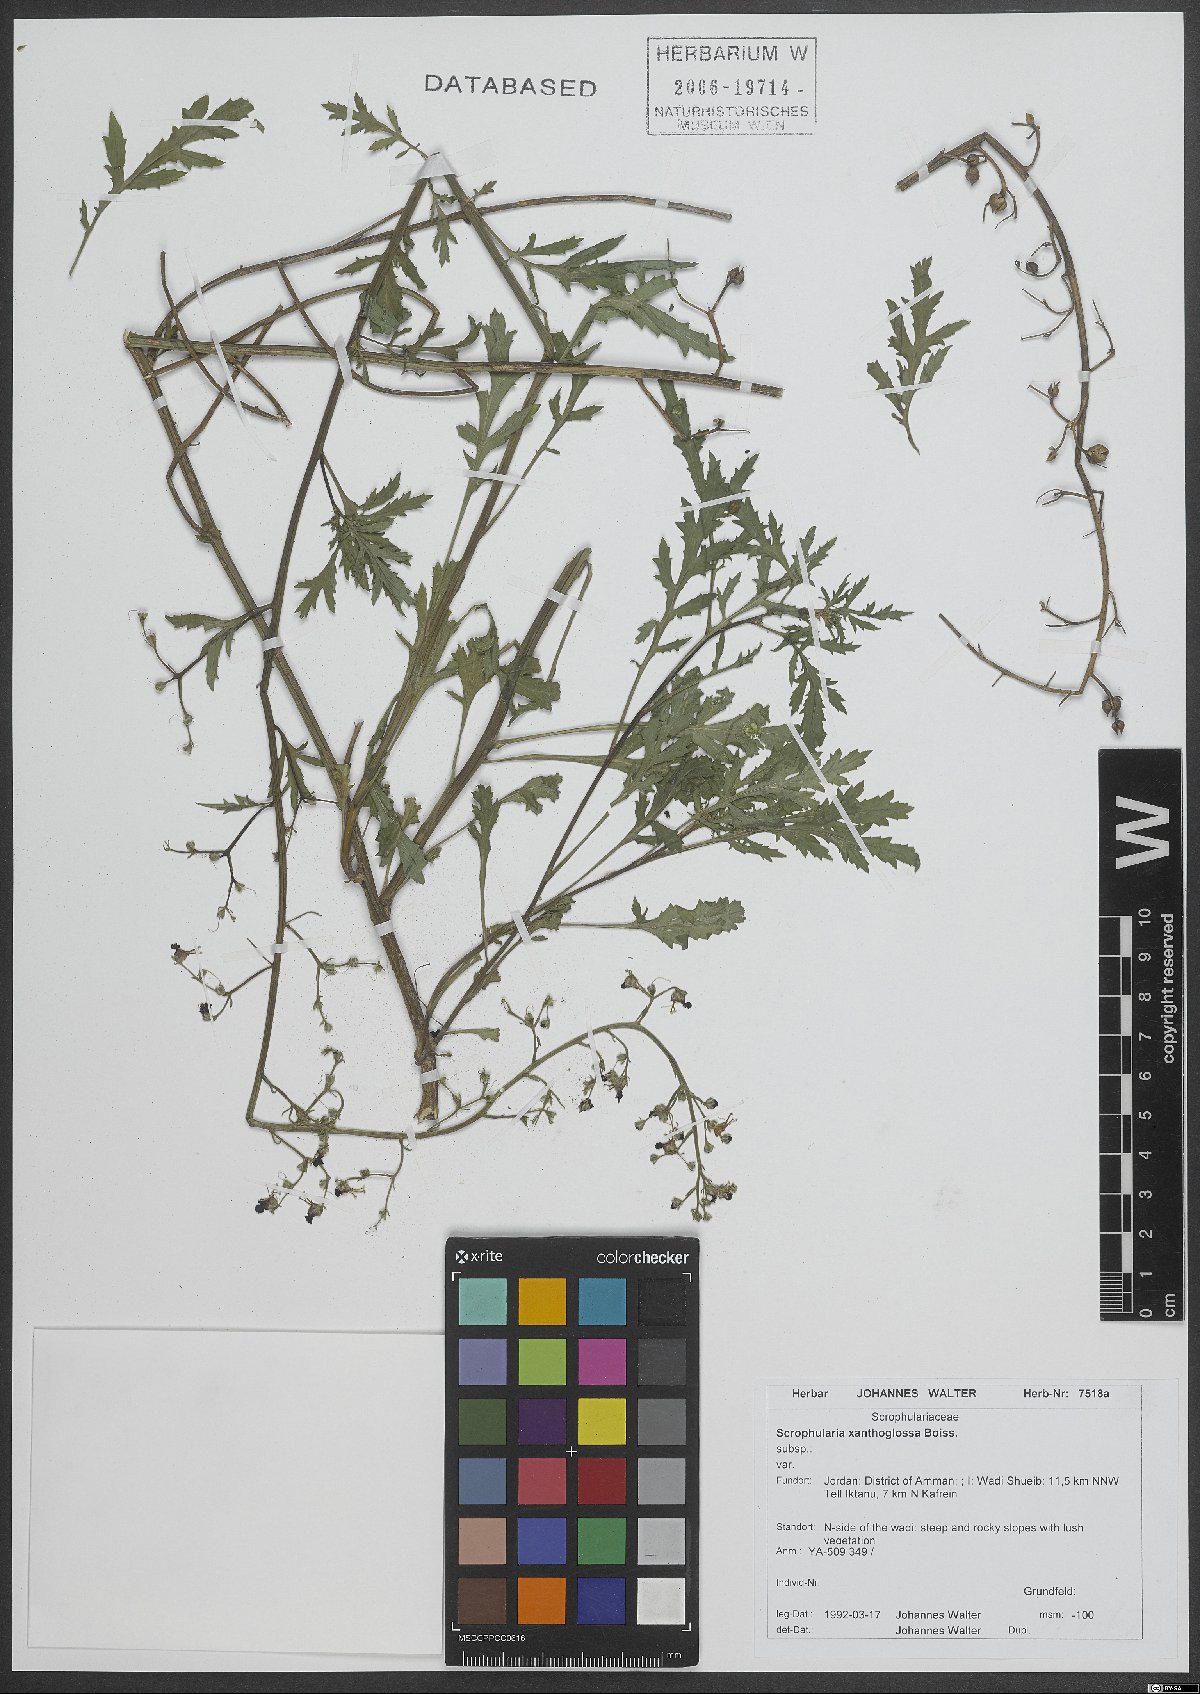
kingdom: Plantae
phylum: Tracheophyta
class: Magnoliopsida
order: Lamiales
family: Scrophulariaceae
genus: Scrophularia
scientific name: Scrophularia xanthoglossa
